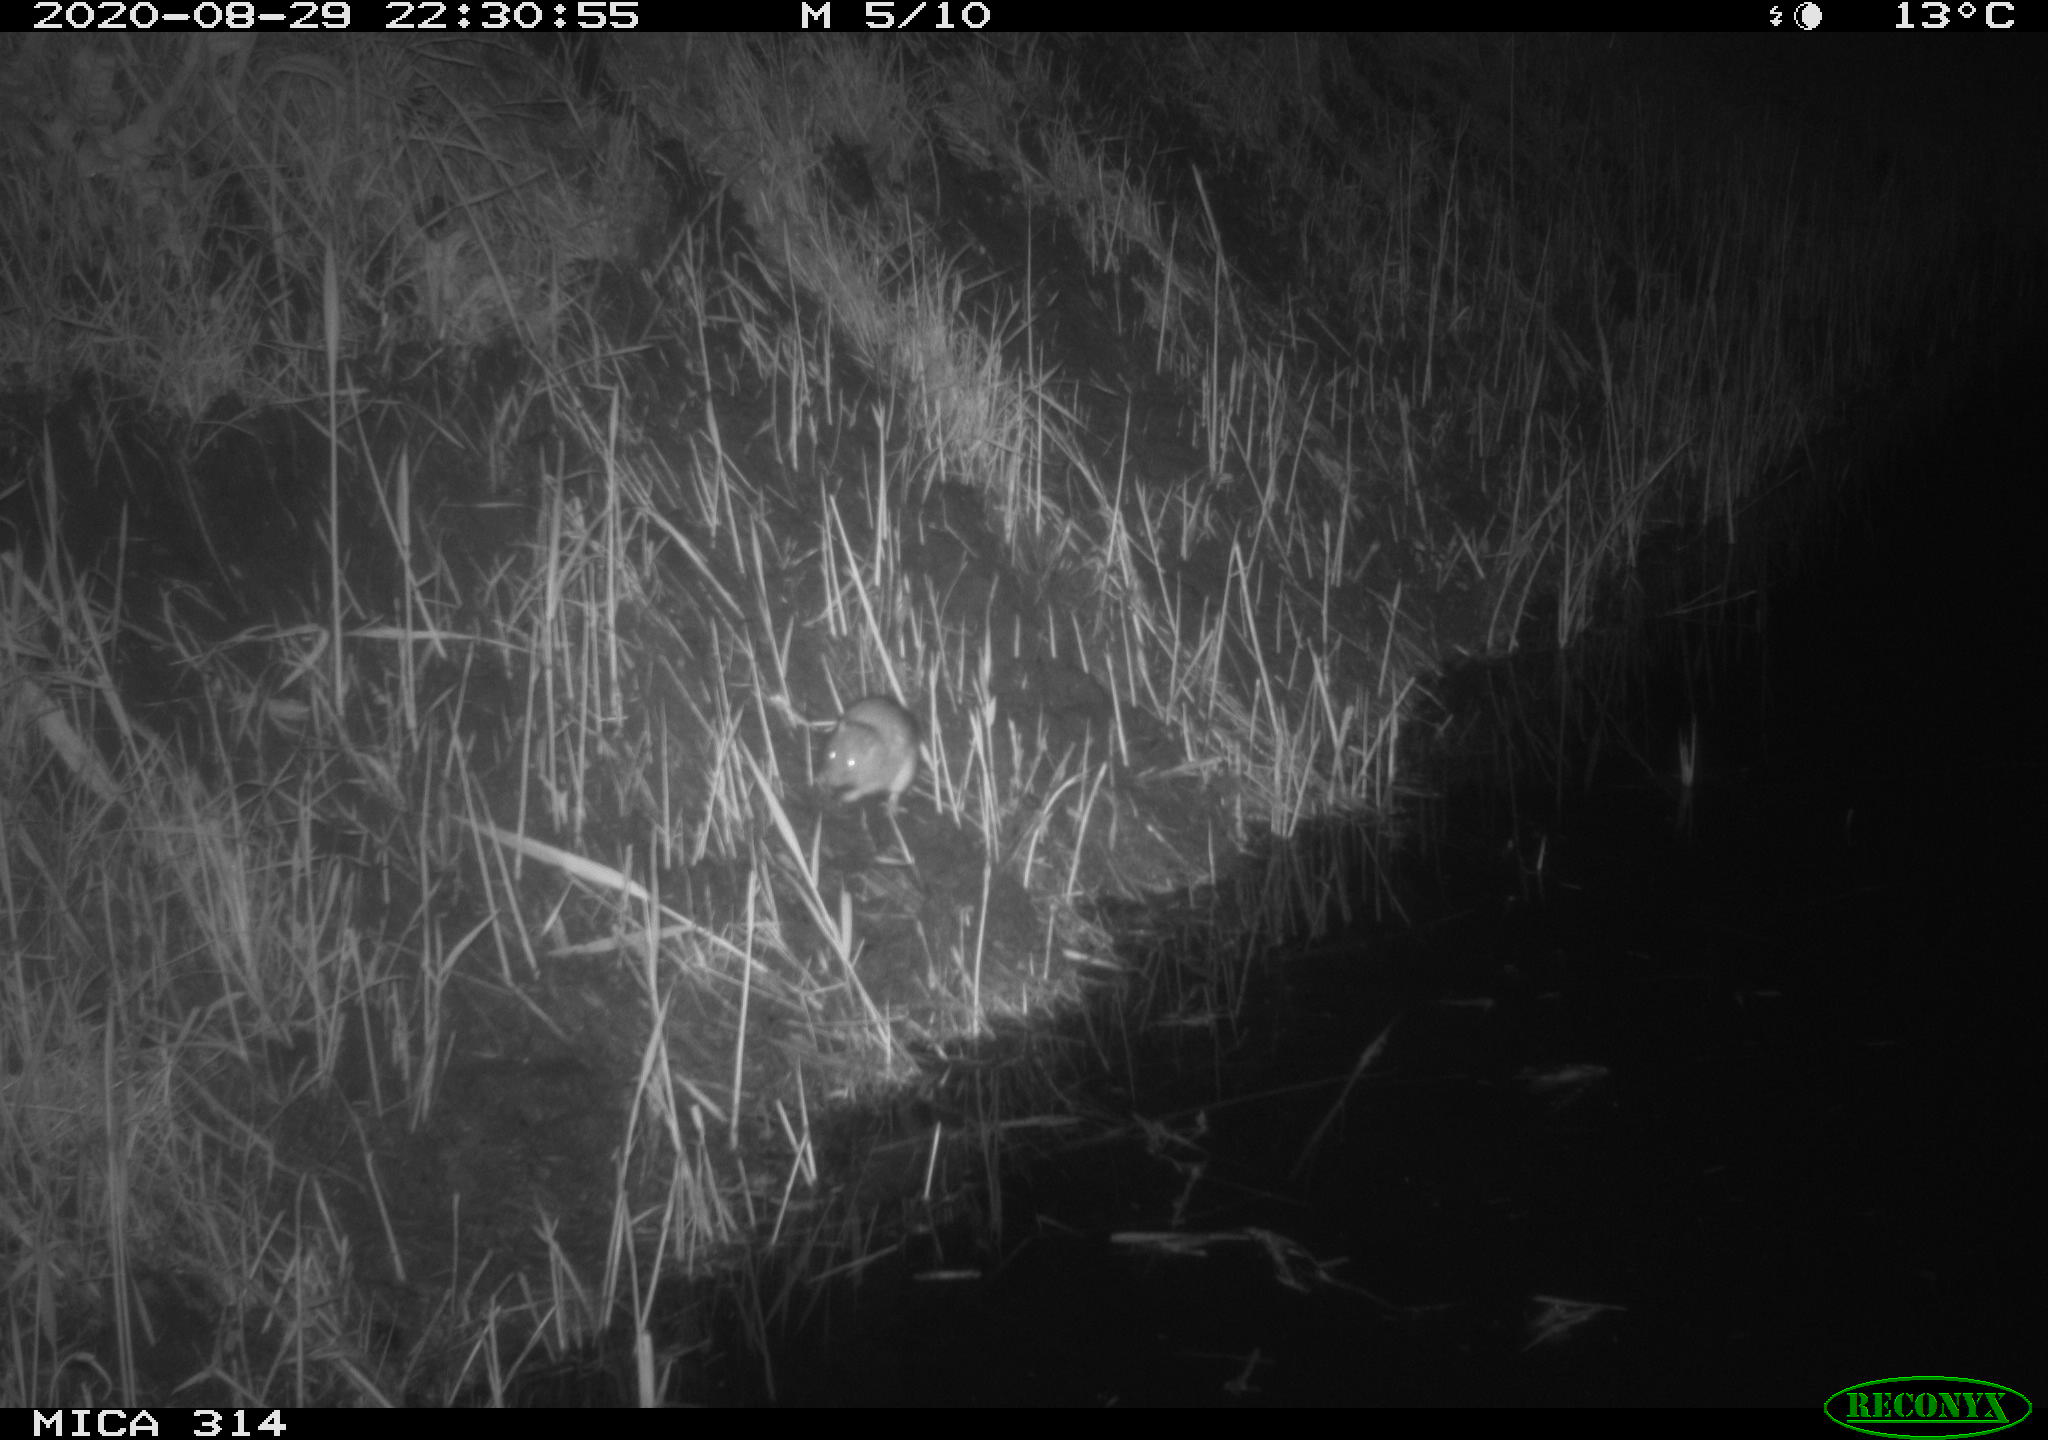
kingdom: Animalia
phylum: Chordata
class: Mammalia
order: Rodentia
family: Muridae
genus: Rattus
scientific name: Rattus norvegicus
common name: Brown rat
